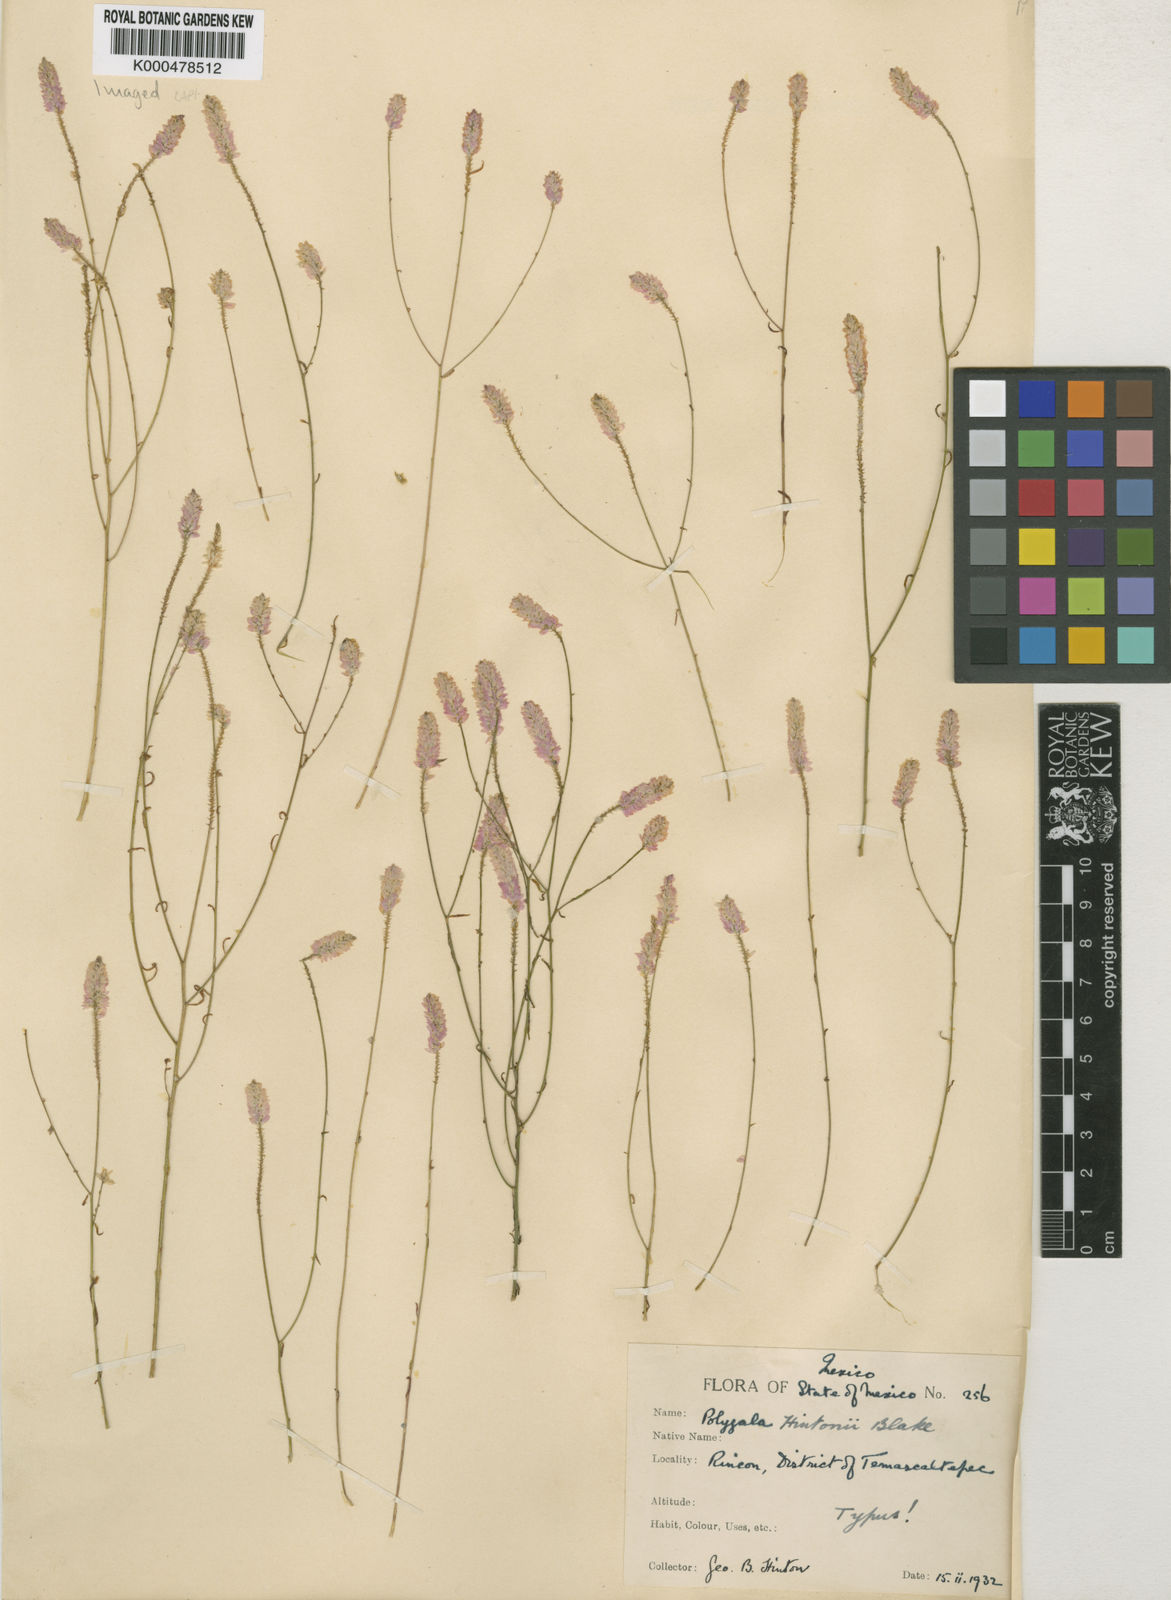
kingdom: Plantae
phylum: Tracheophyta
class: Magnoliopsida
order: Fabales
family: Polygalaceae
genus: Polygala
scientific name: Polygala hintonii
